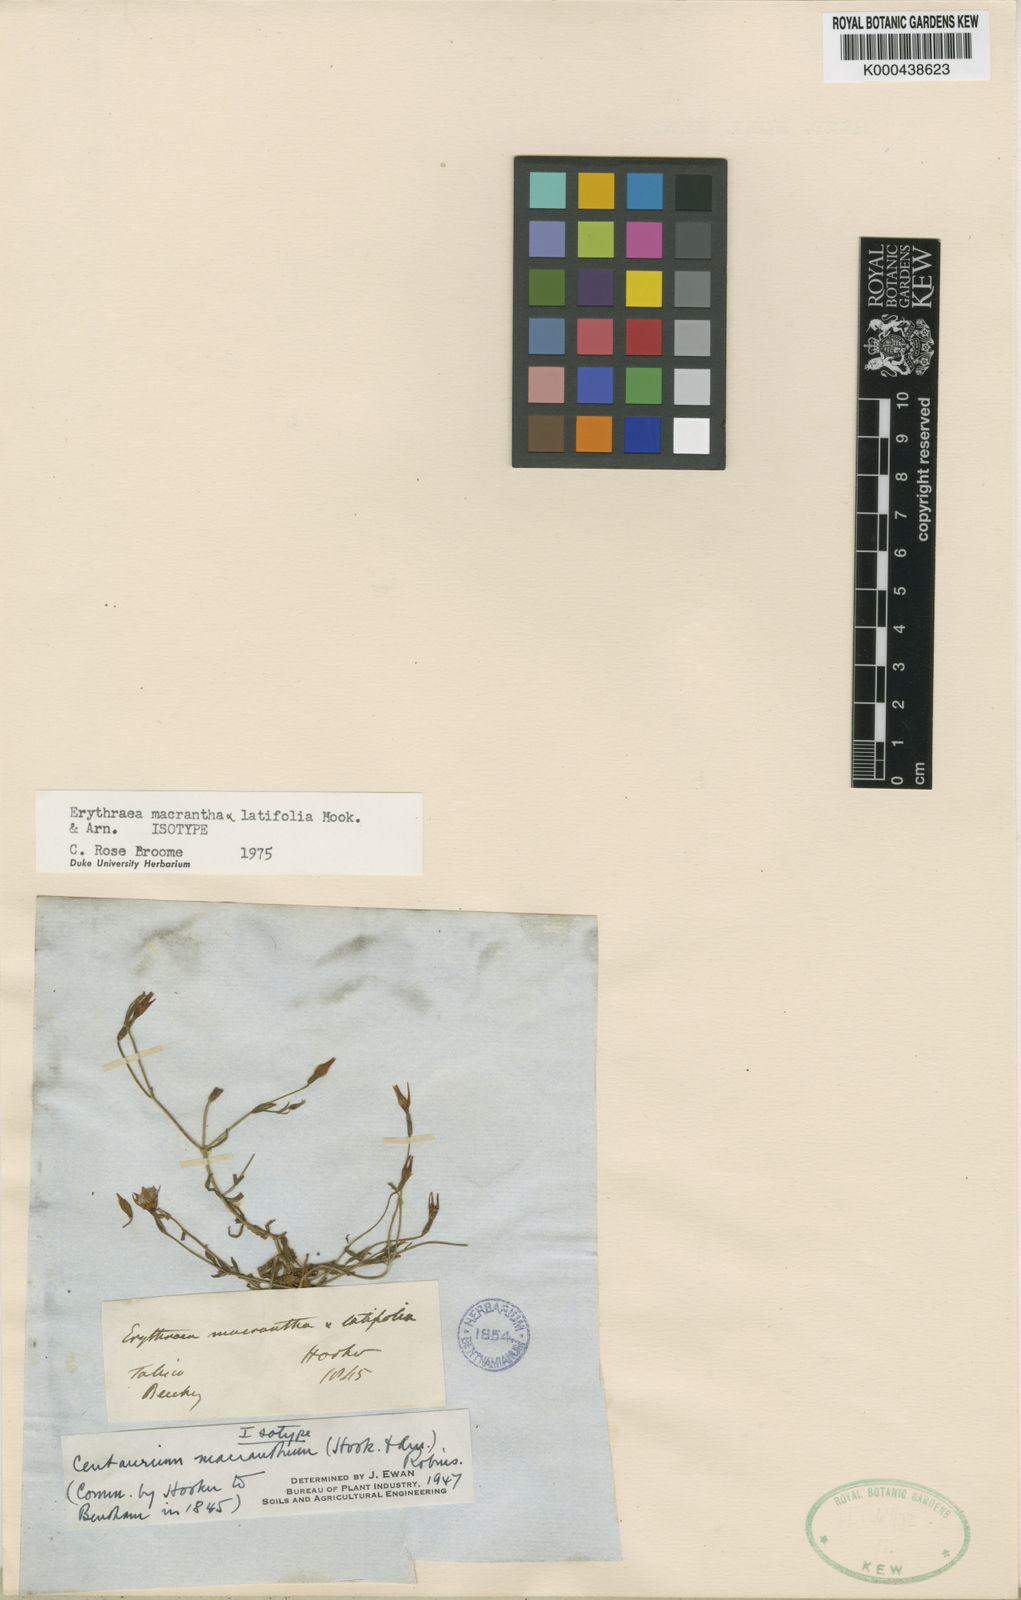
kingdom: Plantae
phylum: Tracheophyta
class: Magnoliopsida
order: Gentianales
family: Gentianaceae
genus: Centaurium
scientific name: Centaurium
